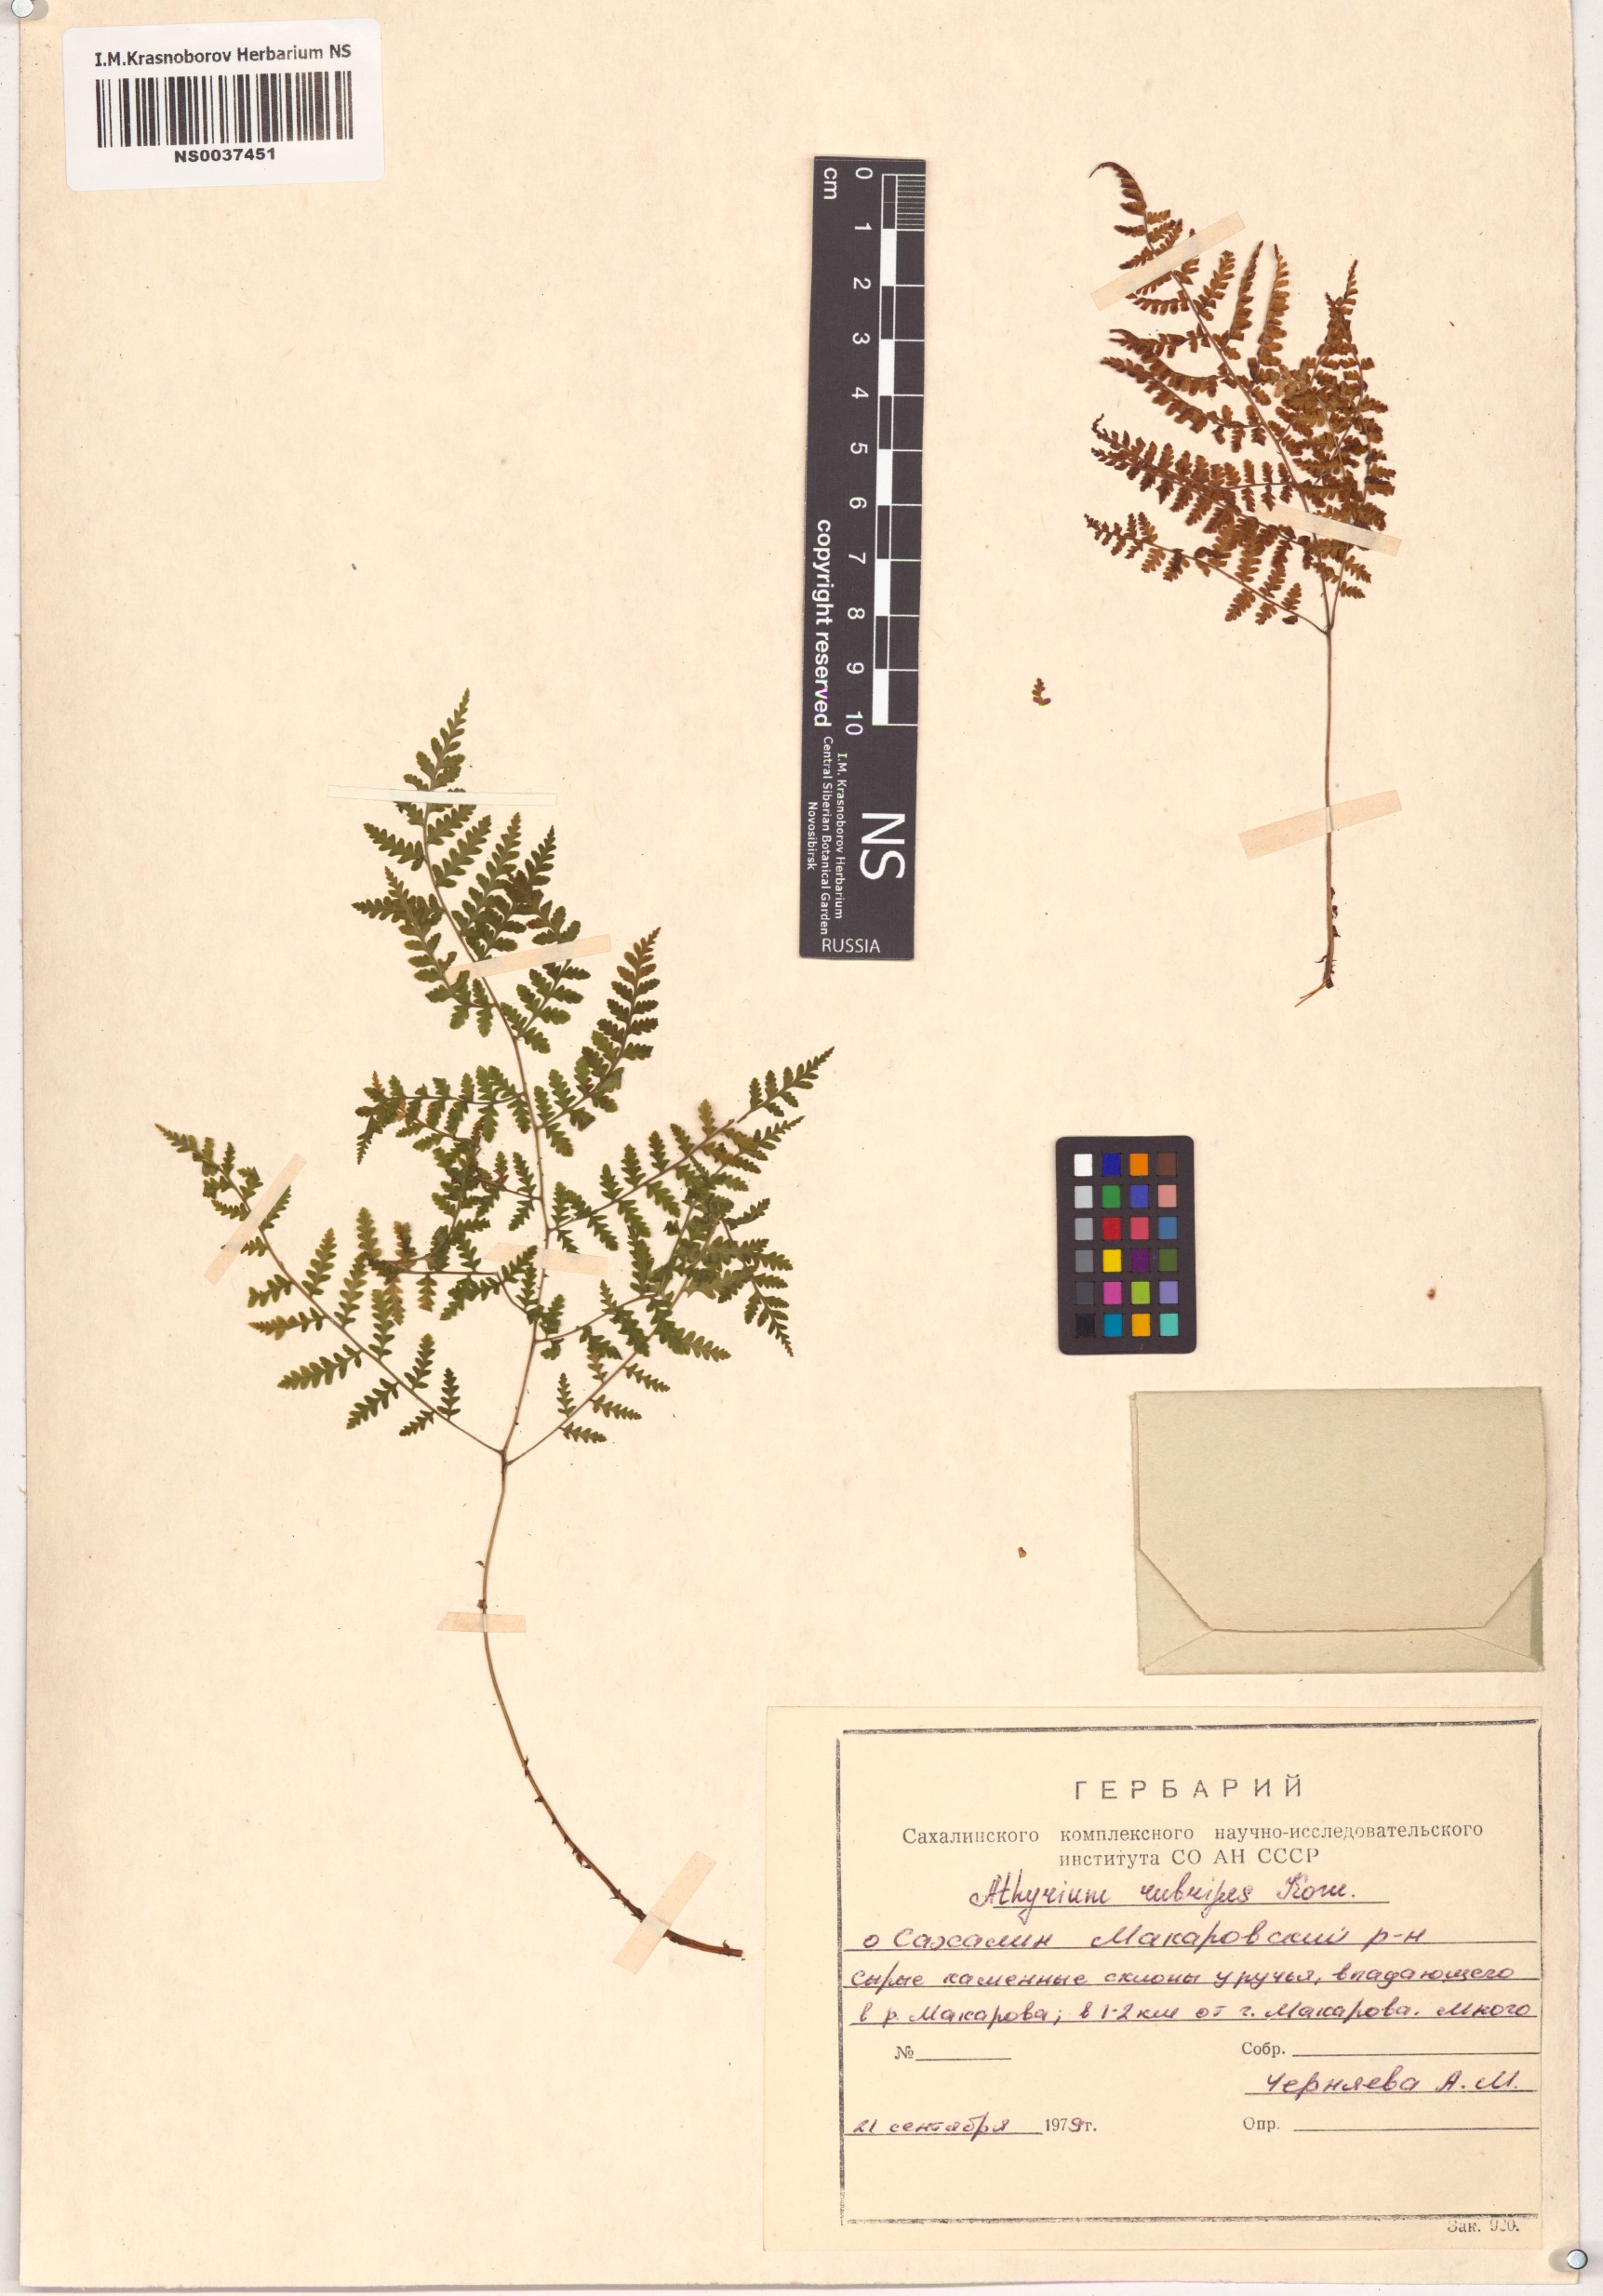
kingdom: Plantae
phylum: Tracheophyta
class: Polypodiopsida
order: Polypodiales
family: Athyriaceae
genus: Athyrium
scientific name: Athyrium rubripes
